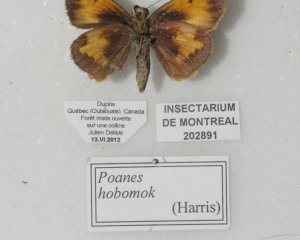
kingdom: Animalia
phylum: Arthropoda
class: Insecta
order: Lepidoptera
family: Hesperiidae
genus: Lon
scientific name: Lon hobomok
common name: Hobomok Skipper
